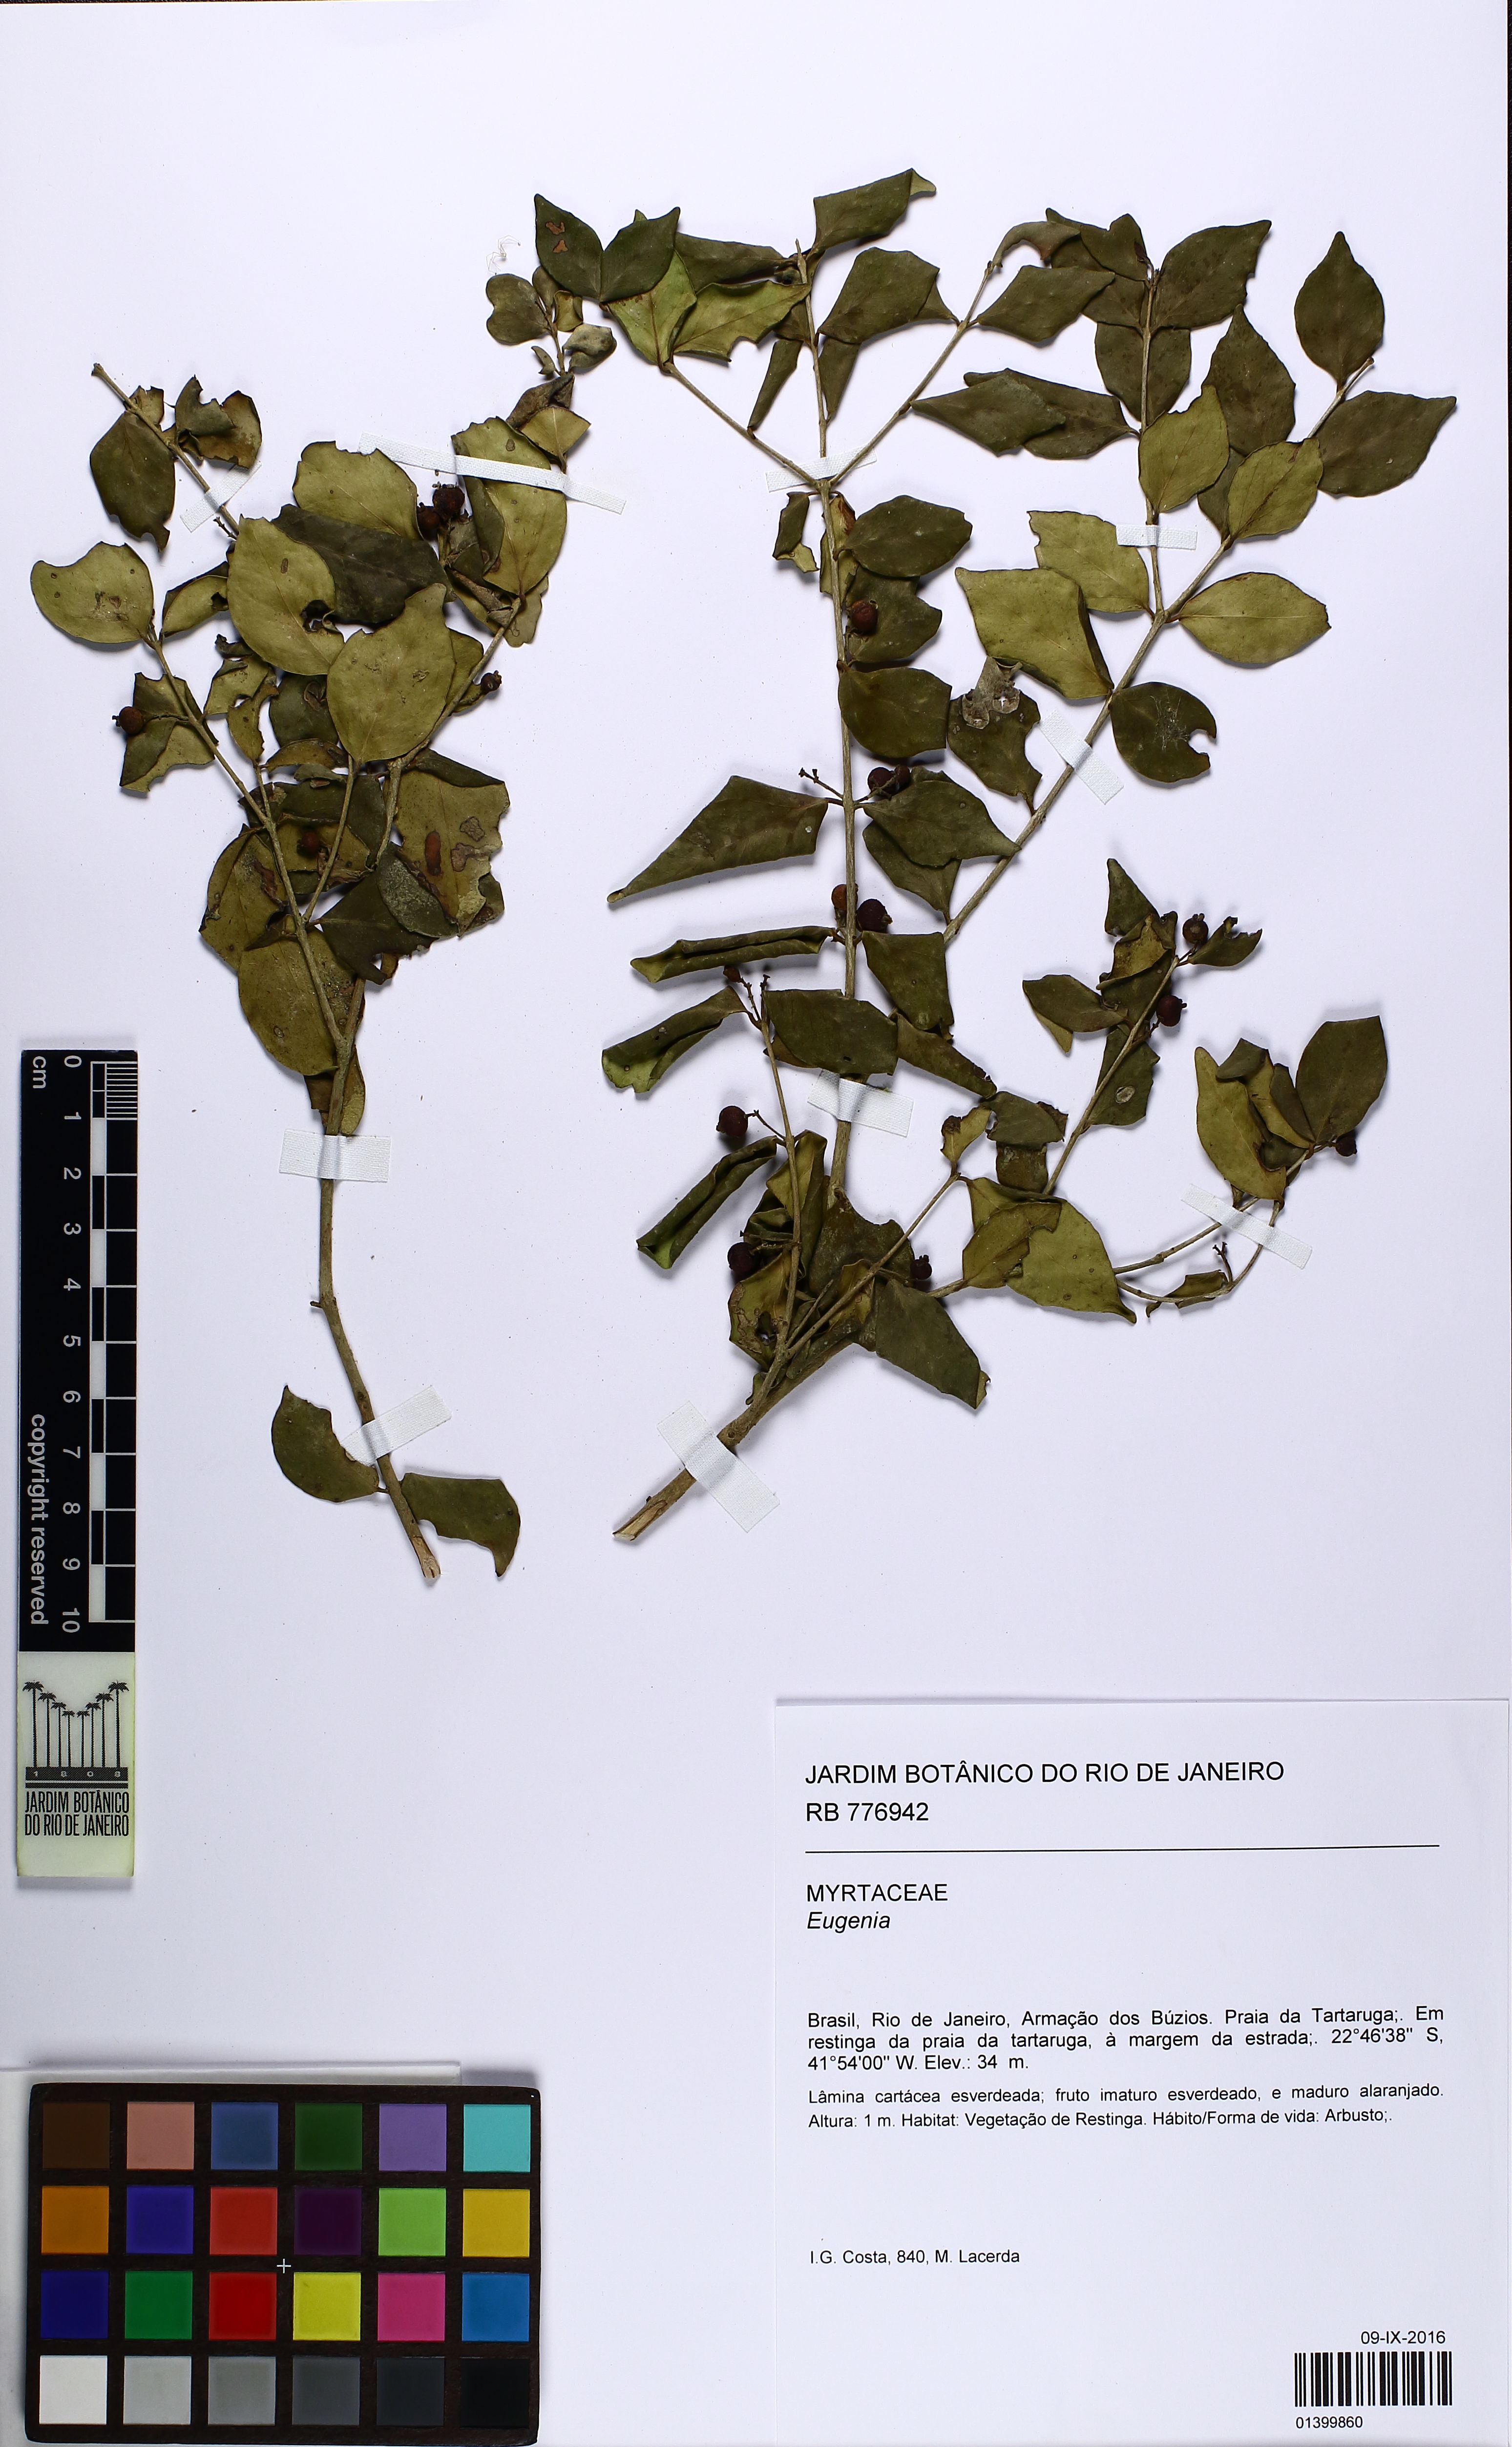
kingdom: Plantae
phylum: Tracheophyta
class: Magnoliopsida
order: Myrtales
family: Myrtaceae
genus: Eugenia
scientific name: Eugenia repanda
